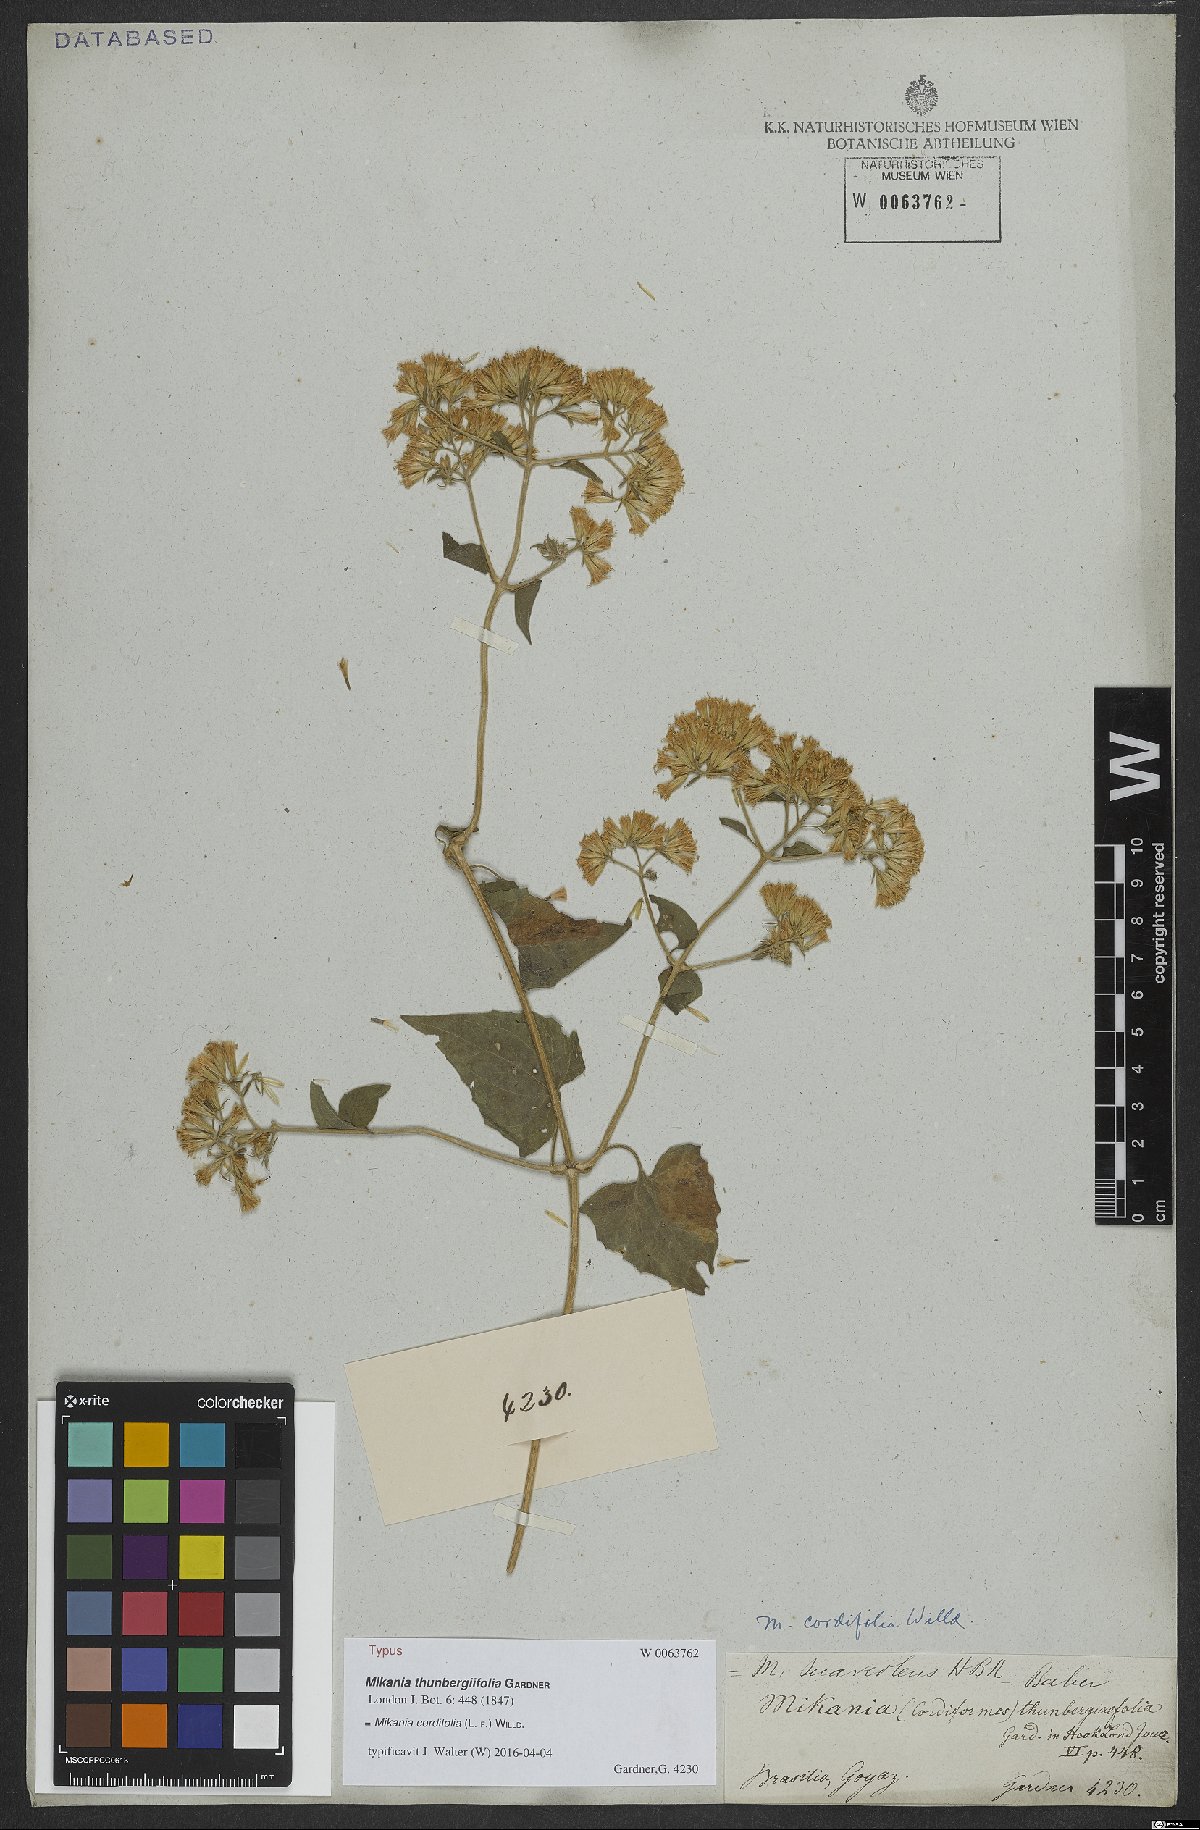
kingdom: Plantae
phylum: Tracheophyta
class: Magnoliopsida
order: Asterales
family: Asteraceae
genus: Mikania
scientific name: Mikania cordifolia
